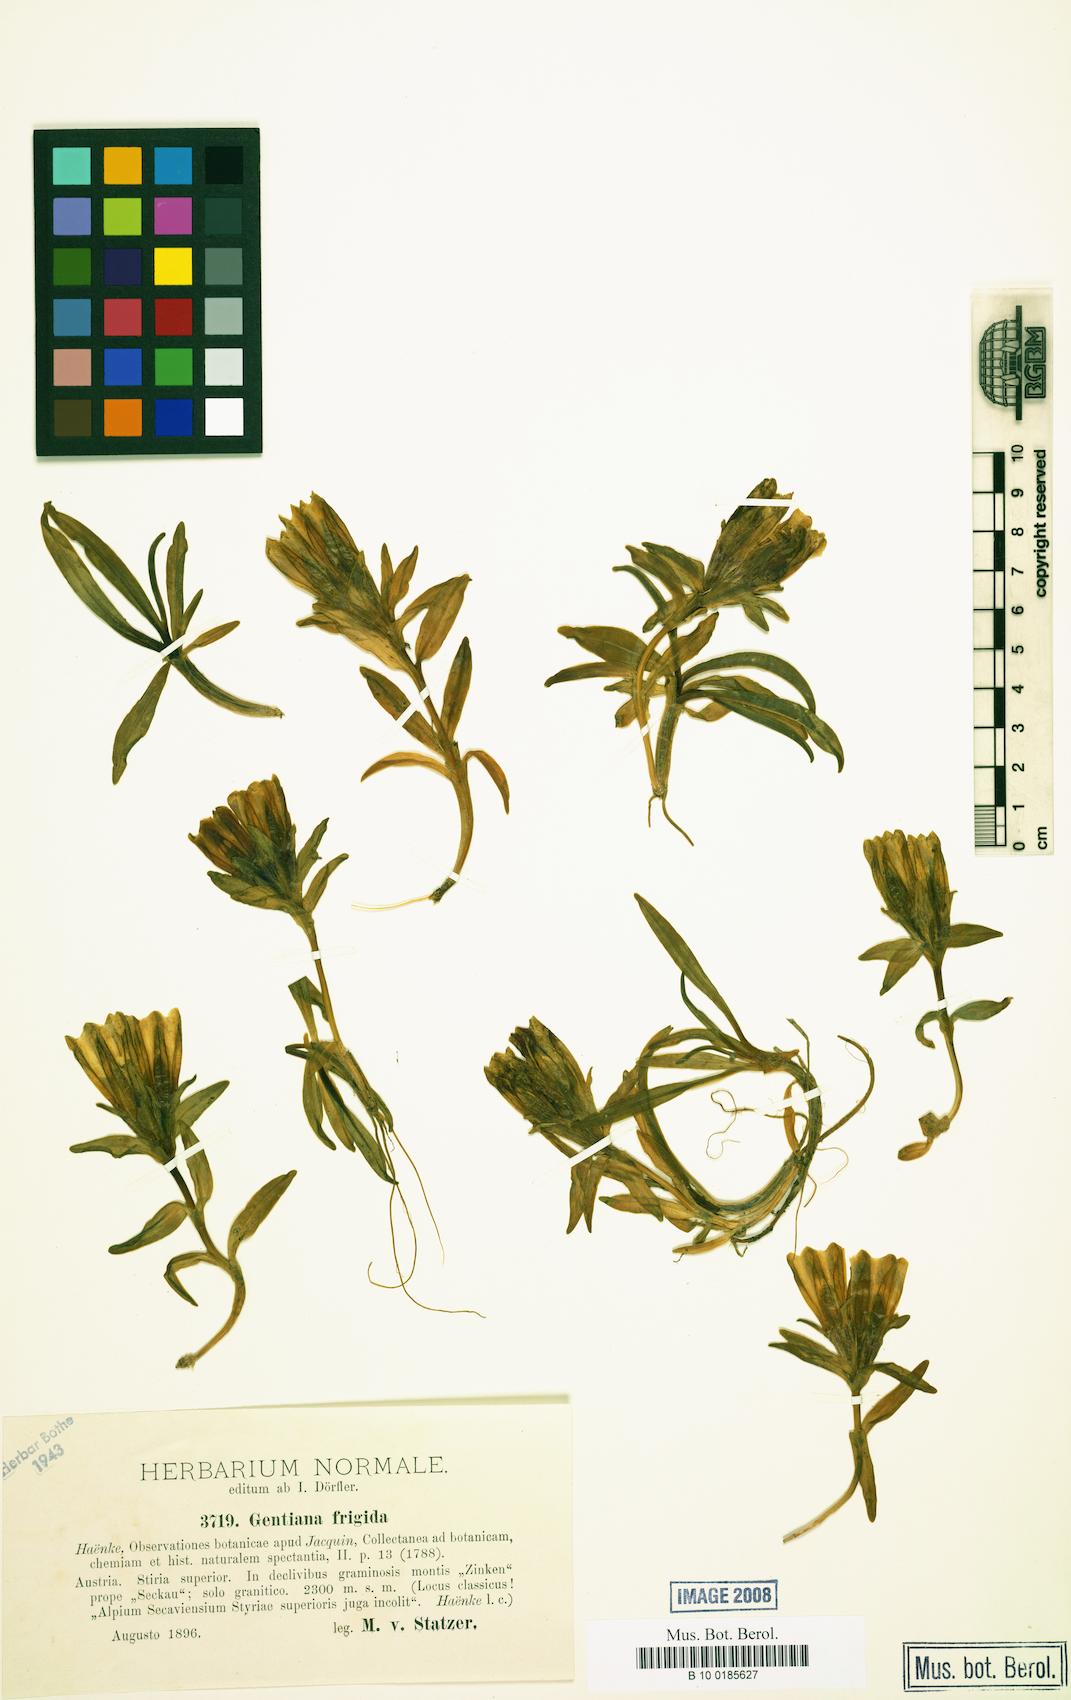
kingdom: Plantae
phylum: Tracheophyta
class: Magnoliopsida
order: Gentianales
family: Gentianaceae
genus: Gentiana
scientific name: Gentiana frigida
